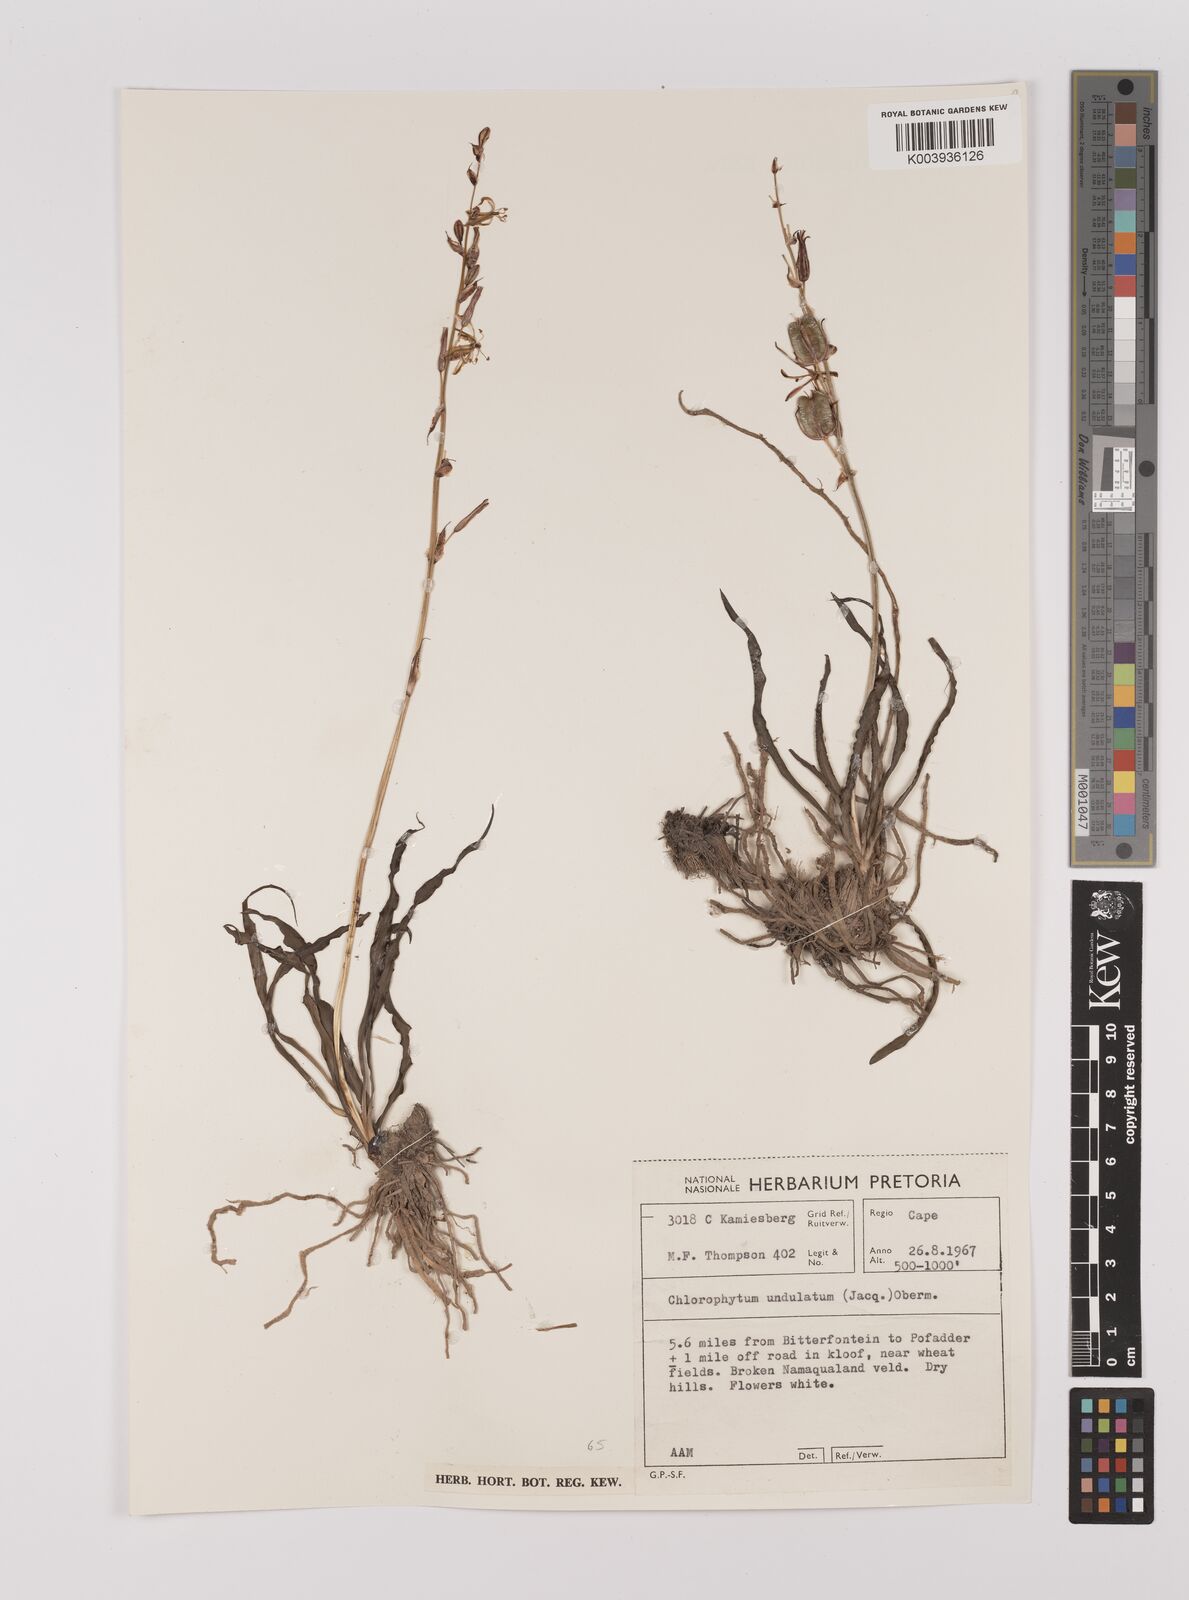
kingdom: Plantae
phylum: Tracheophyta
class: Liliopsida
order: Asparagales
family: Asparagaceae
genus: Chlorophytum
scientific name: Chlorophytum graminifolium
